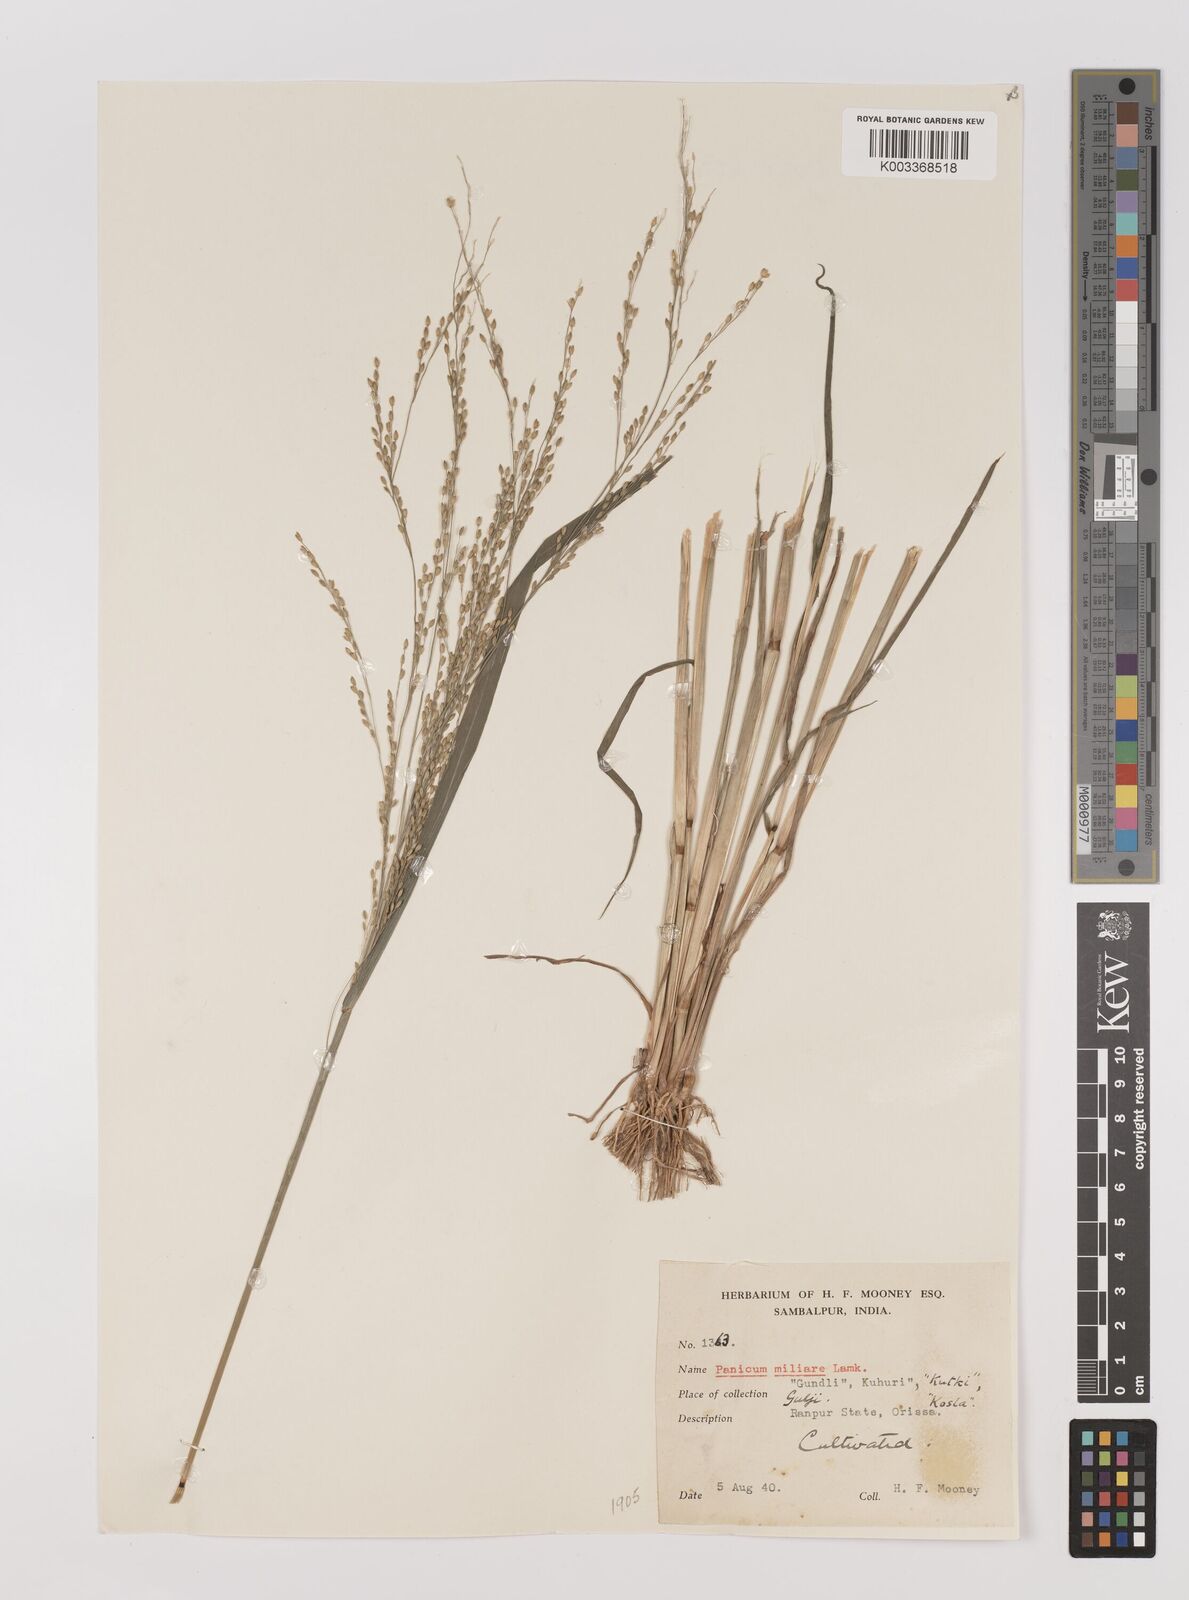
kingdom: Plantae
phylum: Tracheophyta
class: Liliopsida
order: Poales
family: Poaceae
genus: Panicum
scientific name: Panicum sumatrense
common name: Little millet
